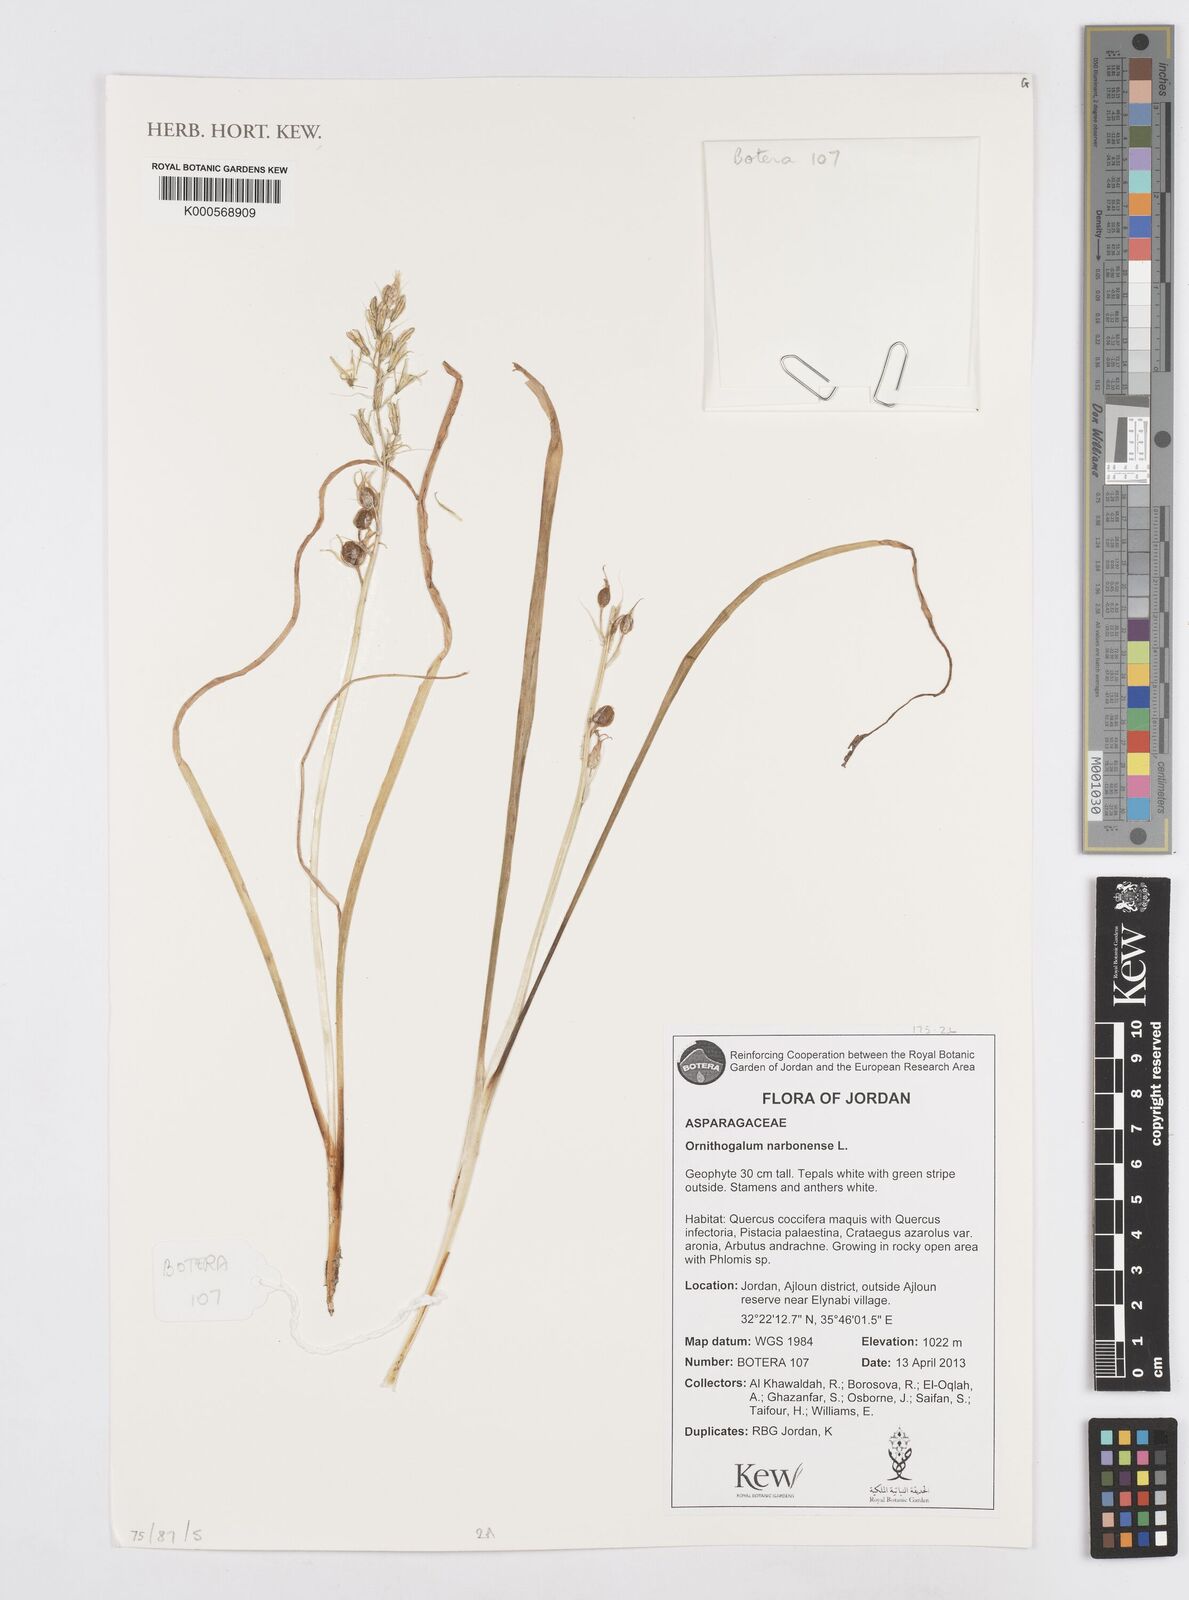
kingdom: Plantae
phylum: Tracheophyta
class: Liliopsida
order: Asparagales
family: Asparagaceae
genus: Ornithogalum
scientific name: Ornithogalum narbonense
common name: Bath-asparagus
